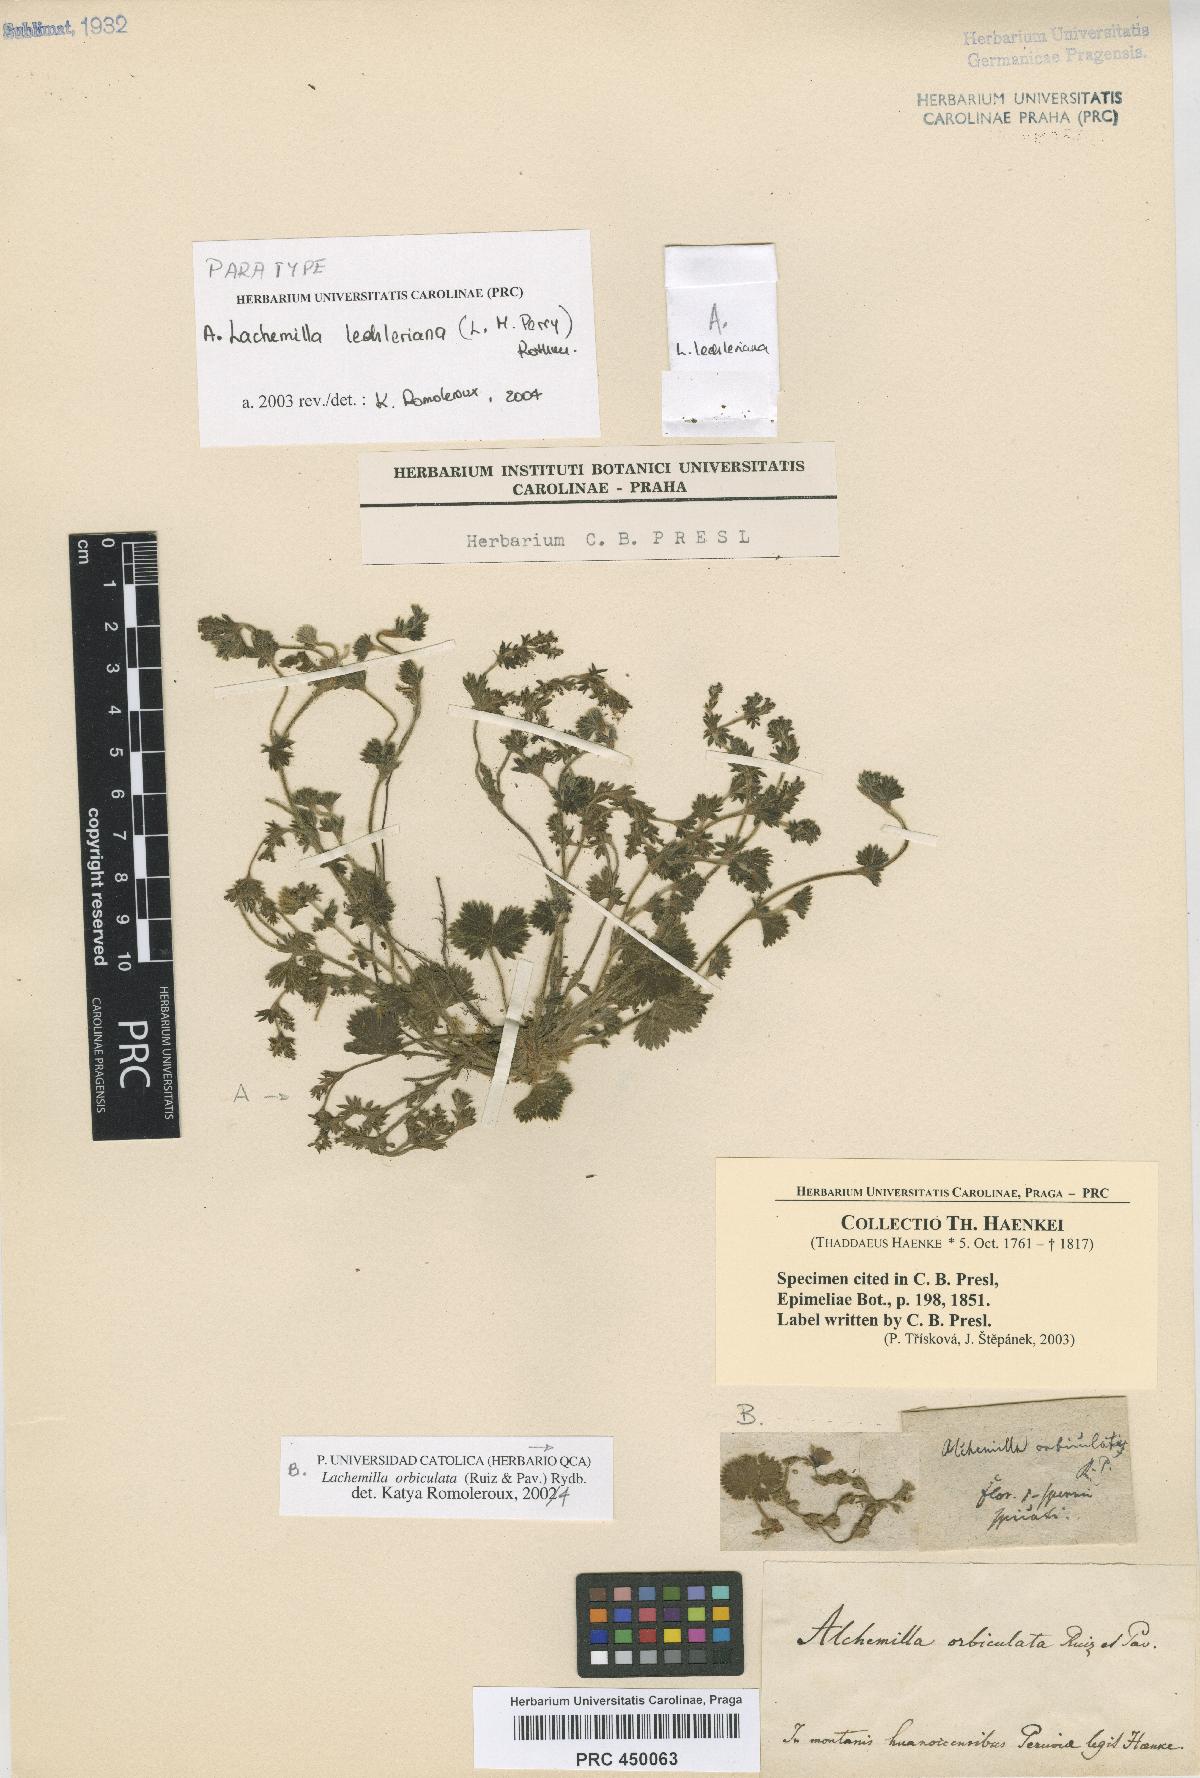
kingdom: Plantae
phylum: Tracheophyta
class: Magnoliopsida
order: Rosales
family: Rosaceae
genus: Lachemilla
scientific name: Lachemilla
